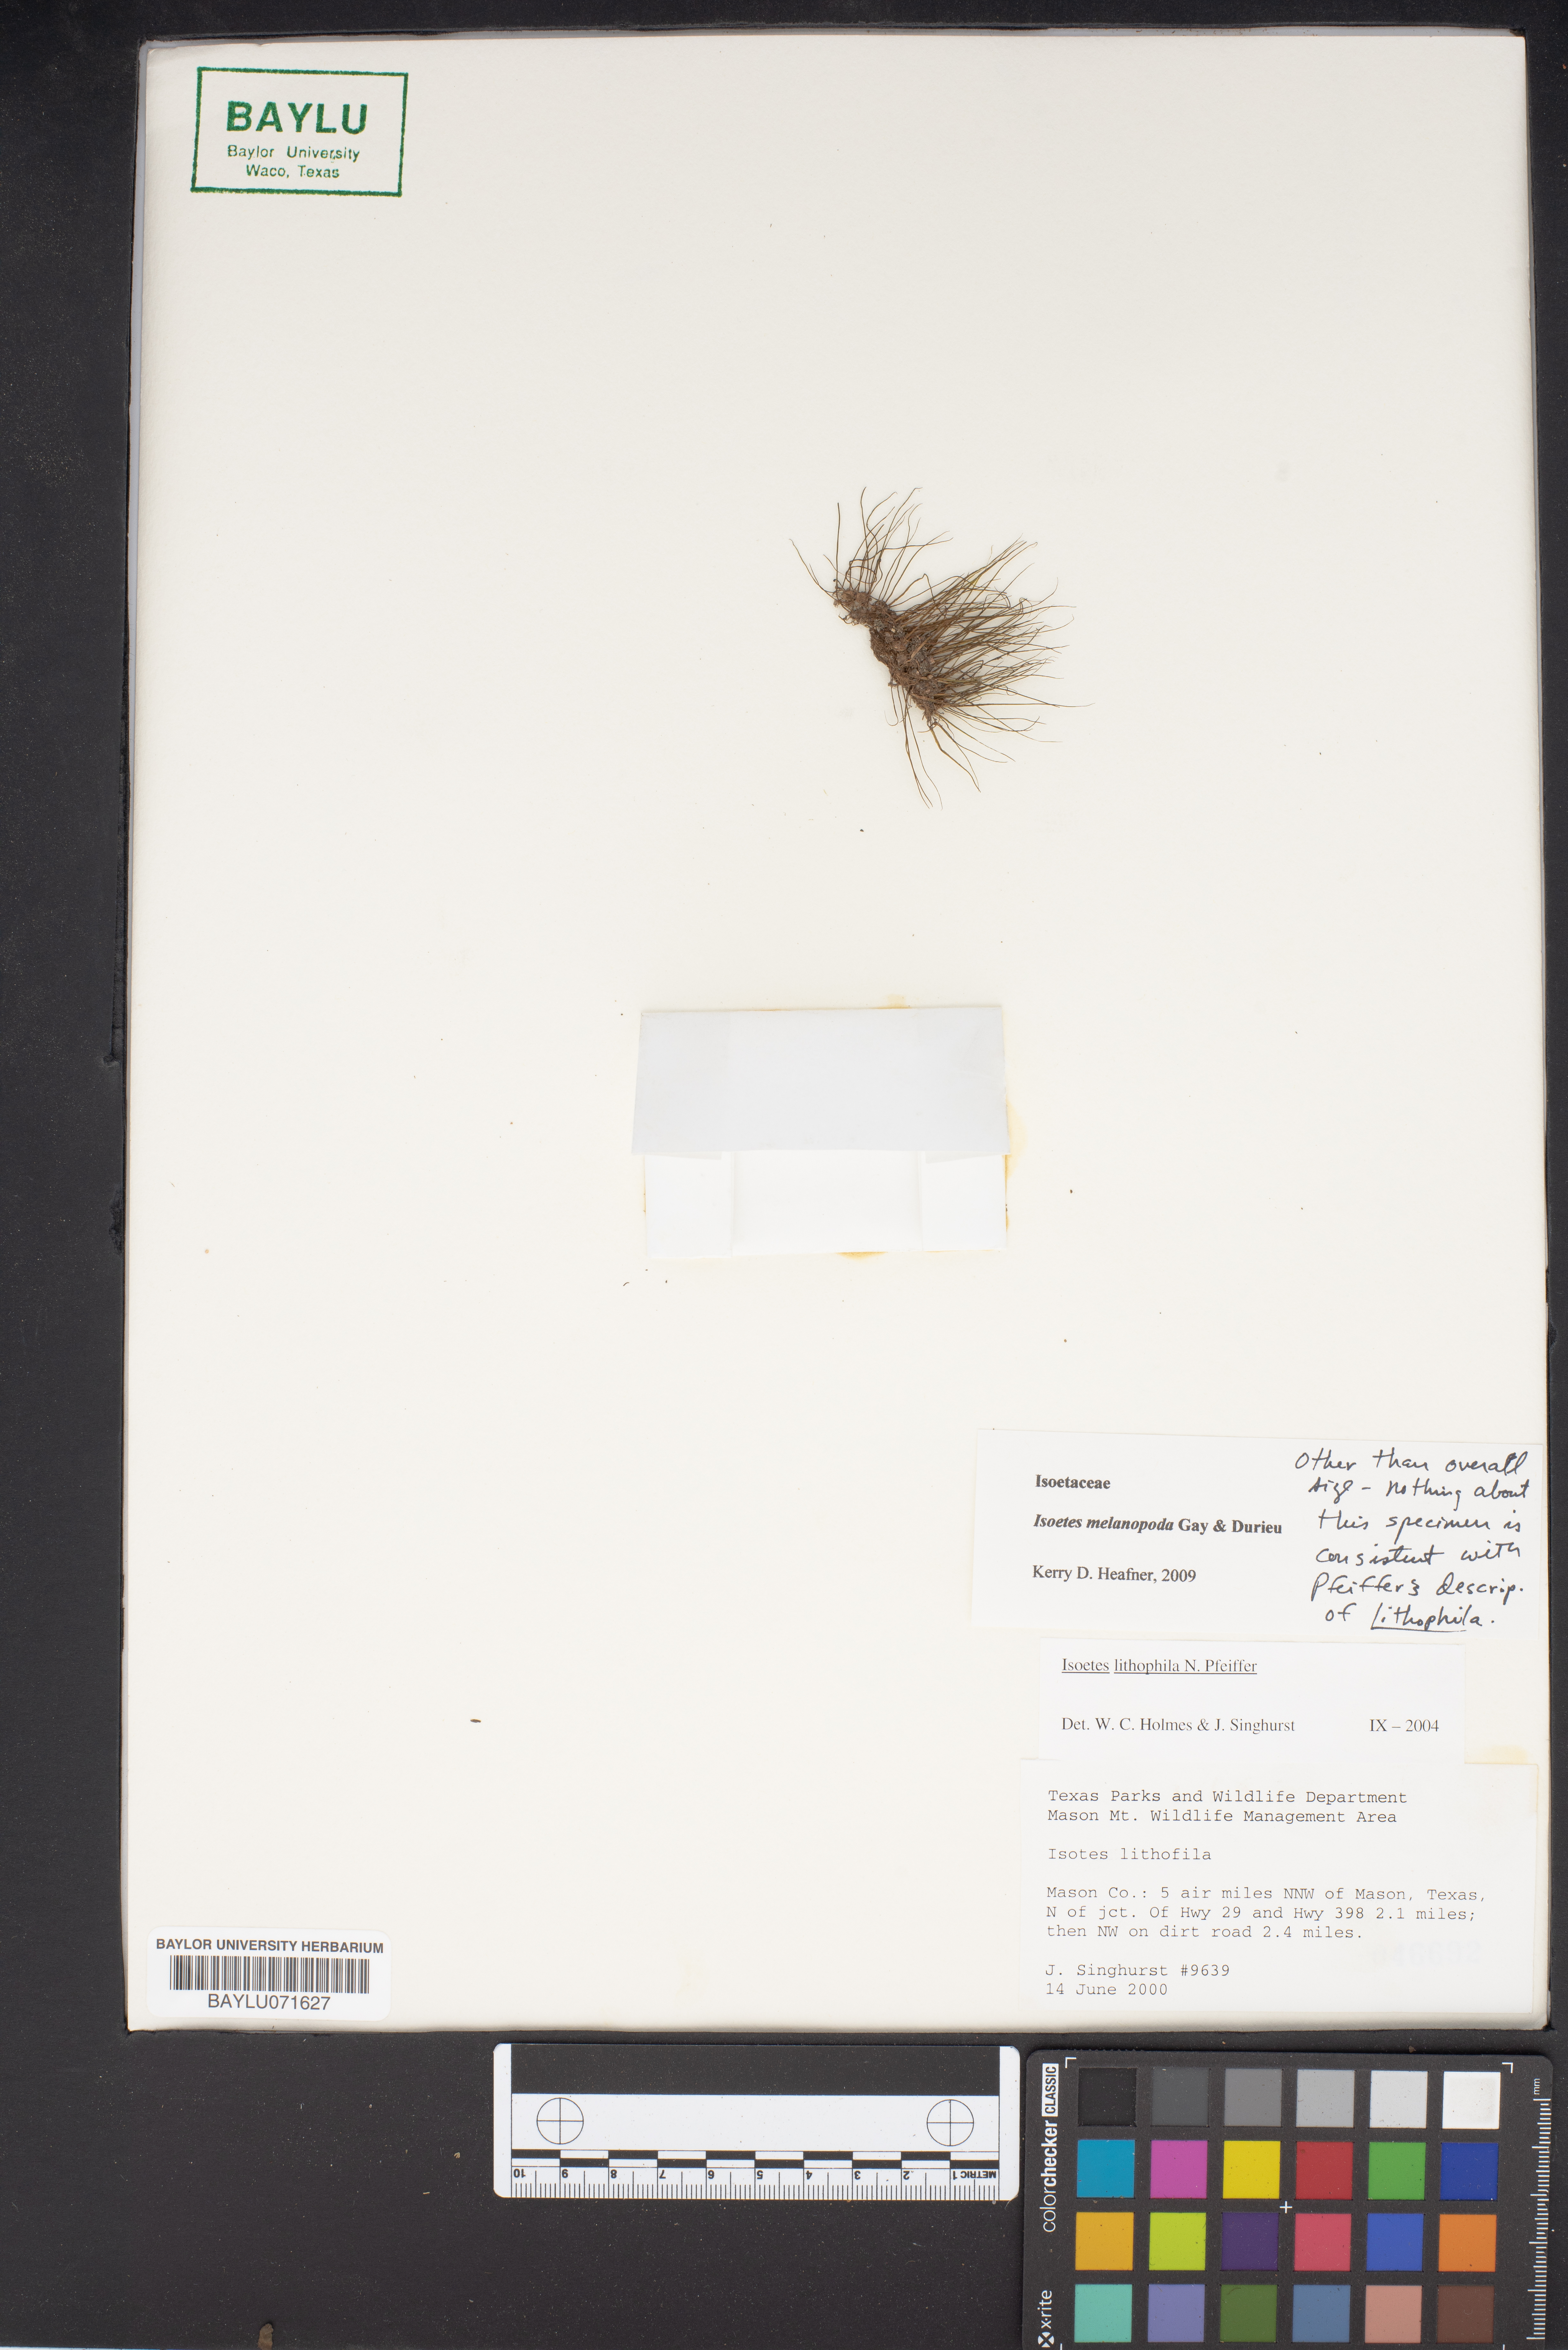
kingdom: Plantae
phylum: Tracheophyta
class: Lycopodiopsida
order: Isoetales
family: Isoetaceae
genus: Isoetes
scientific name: Isoetes lithophila
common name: Rock quillwort
